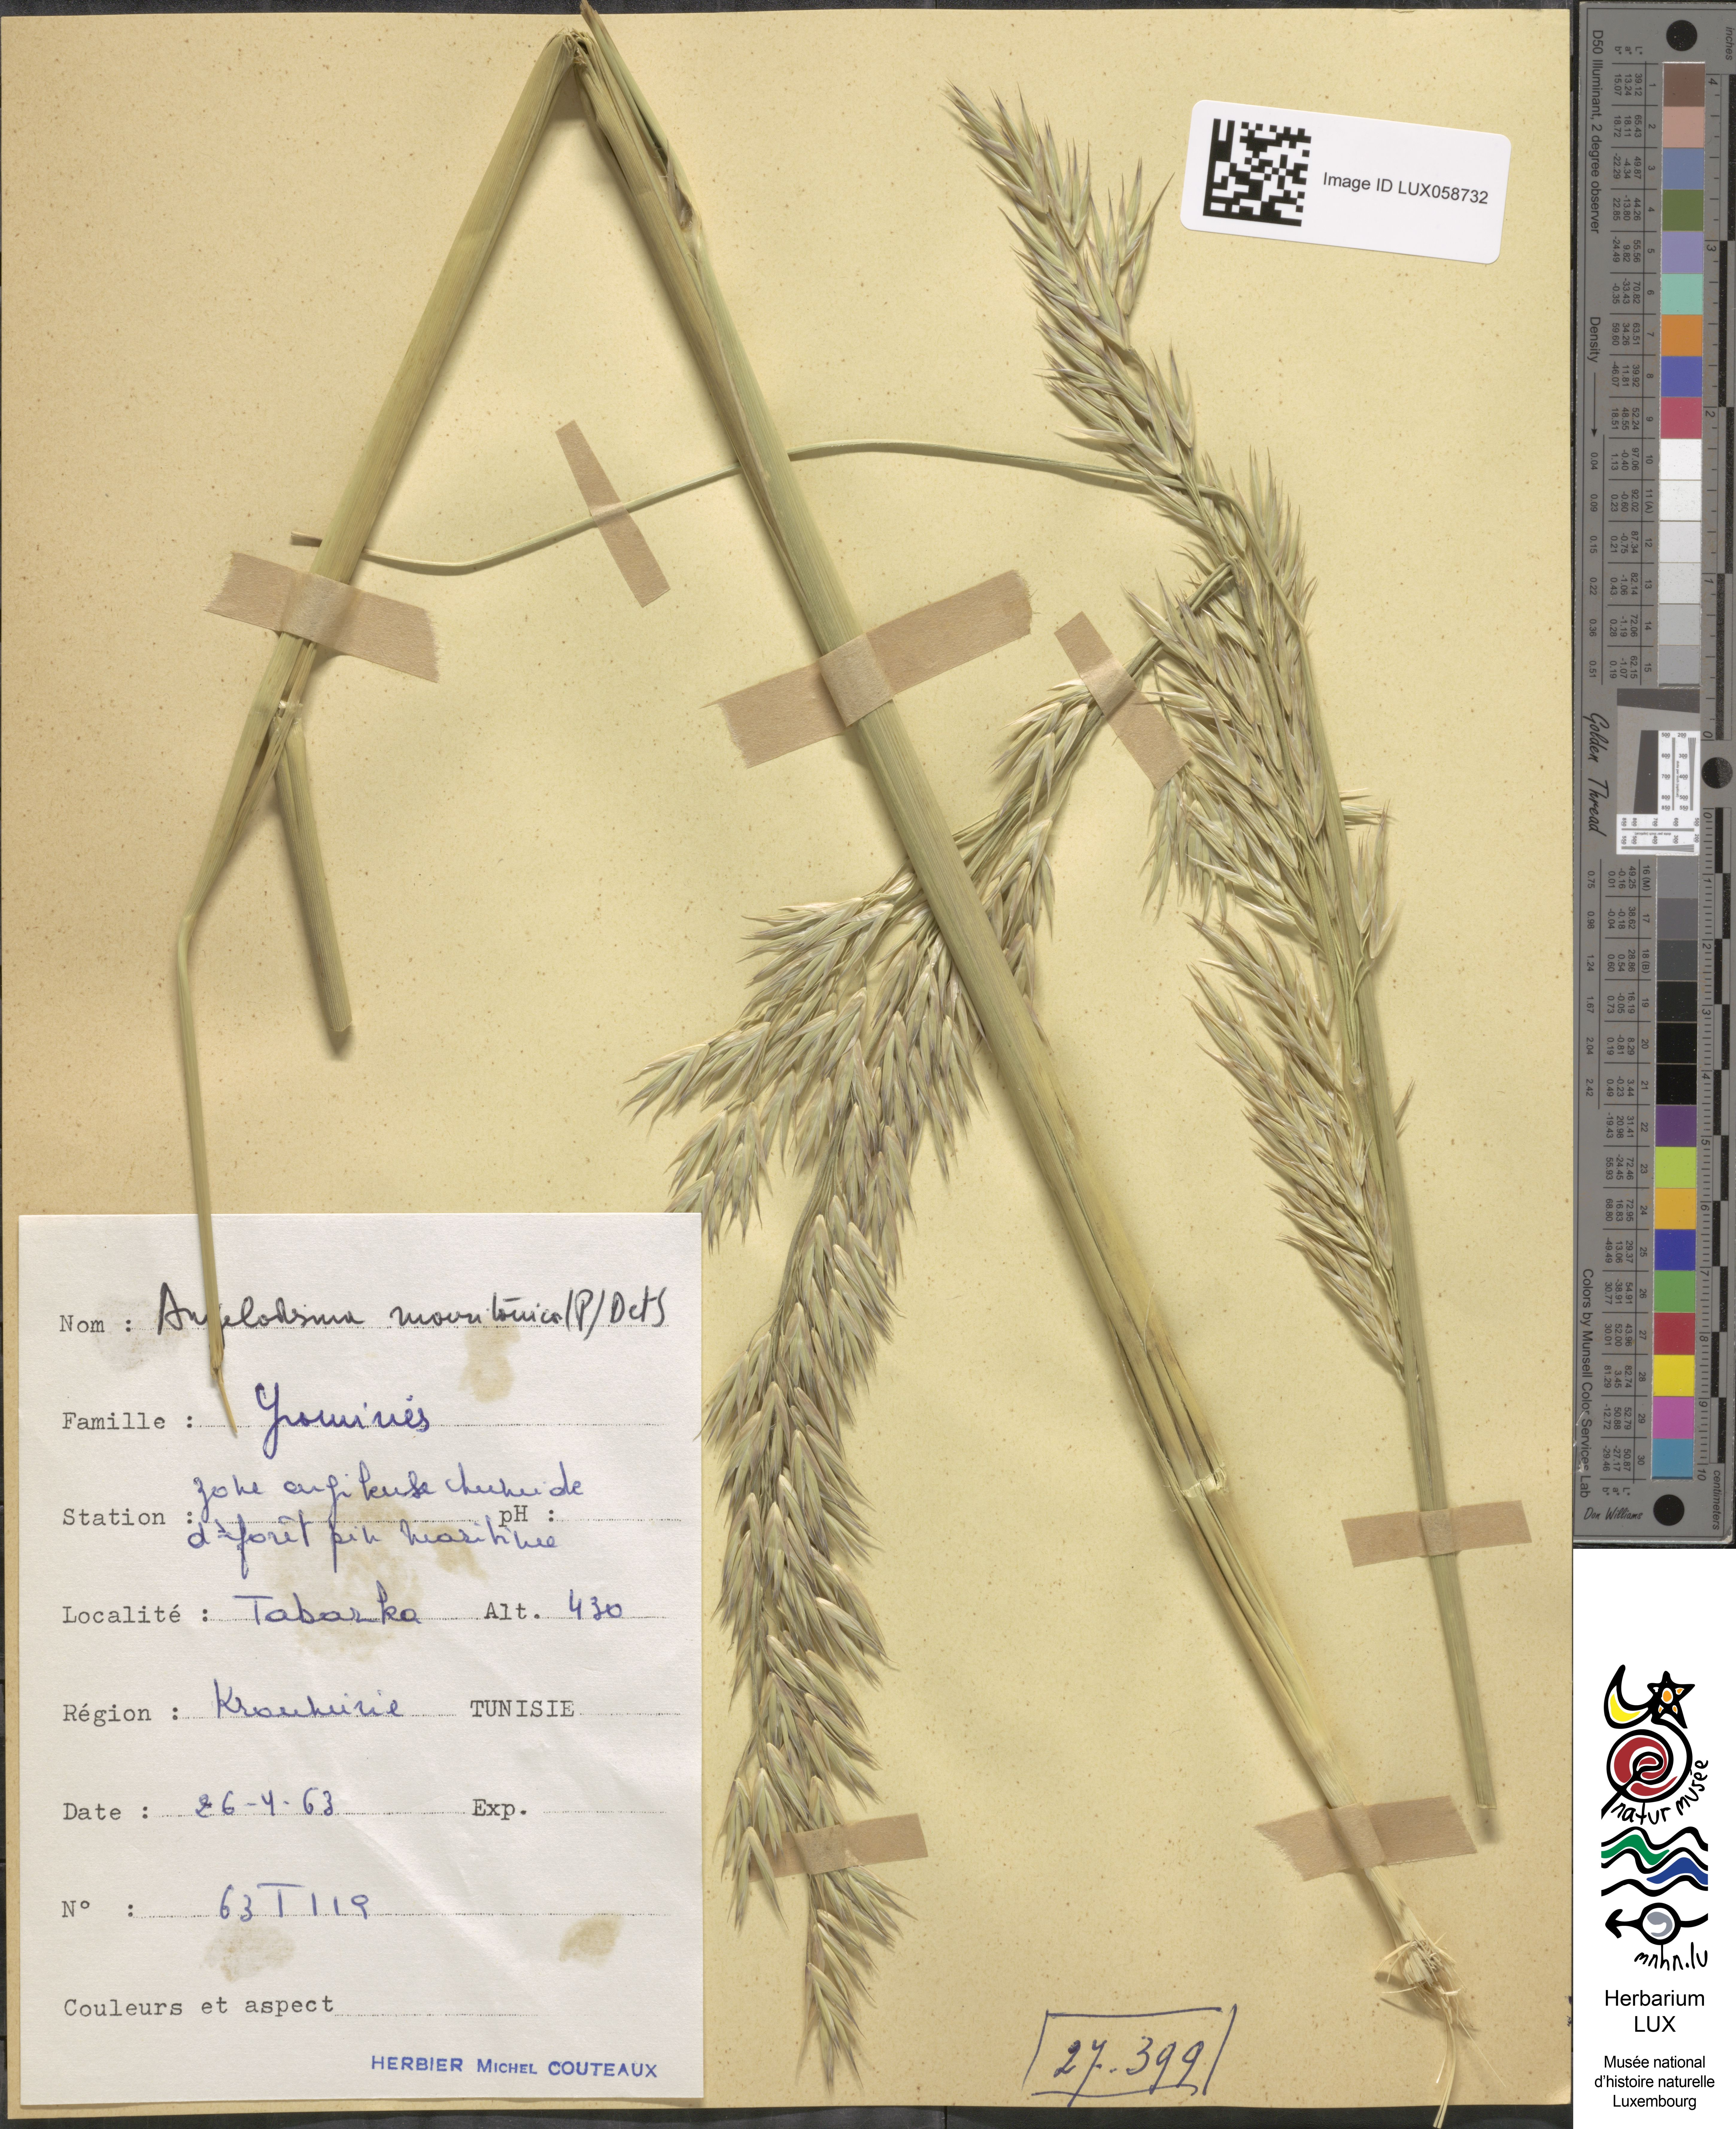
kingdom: Plantae
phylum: Tracheophyta
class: Liliopsida
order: Poales
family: Poaceae
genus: Ampelodesmos
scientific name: Ampelodesmos mauritanicus
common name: Mauritanian grass
